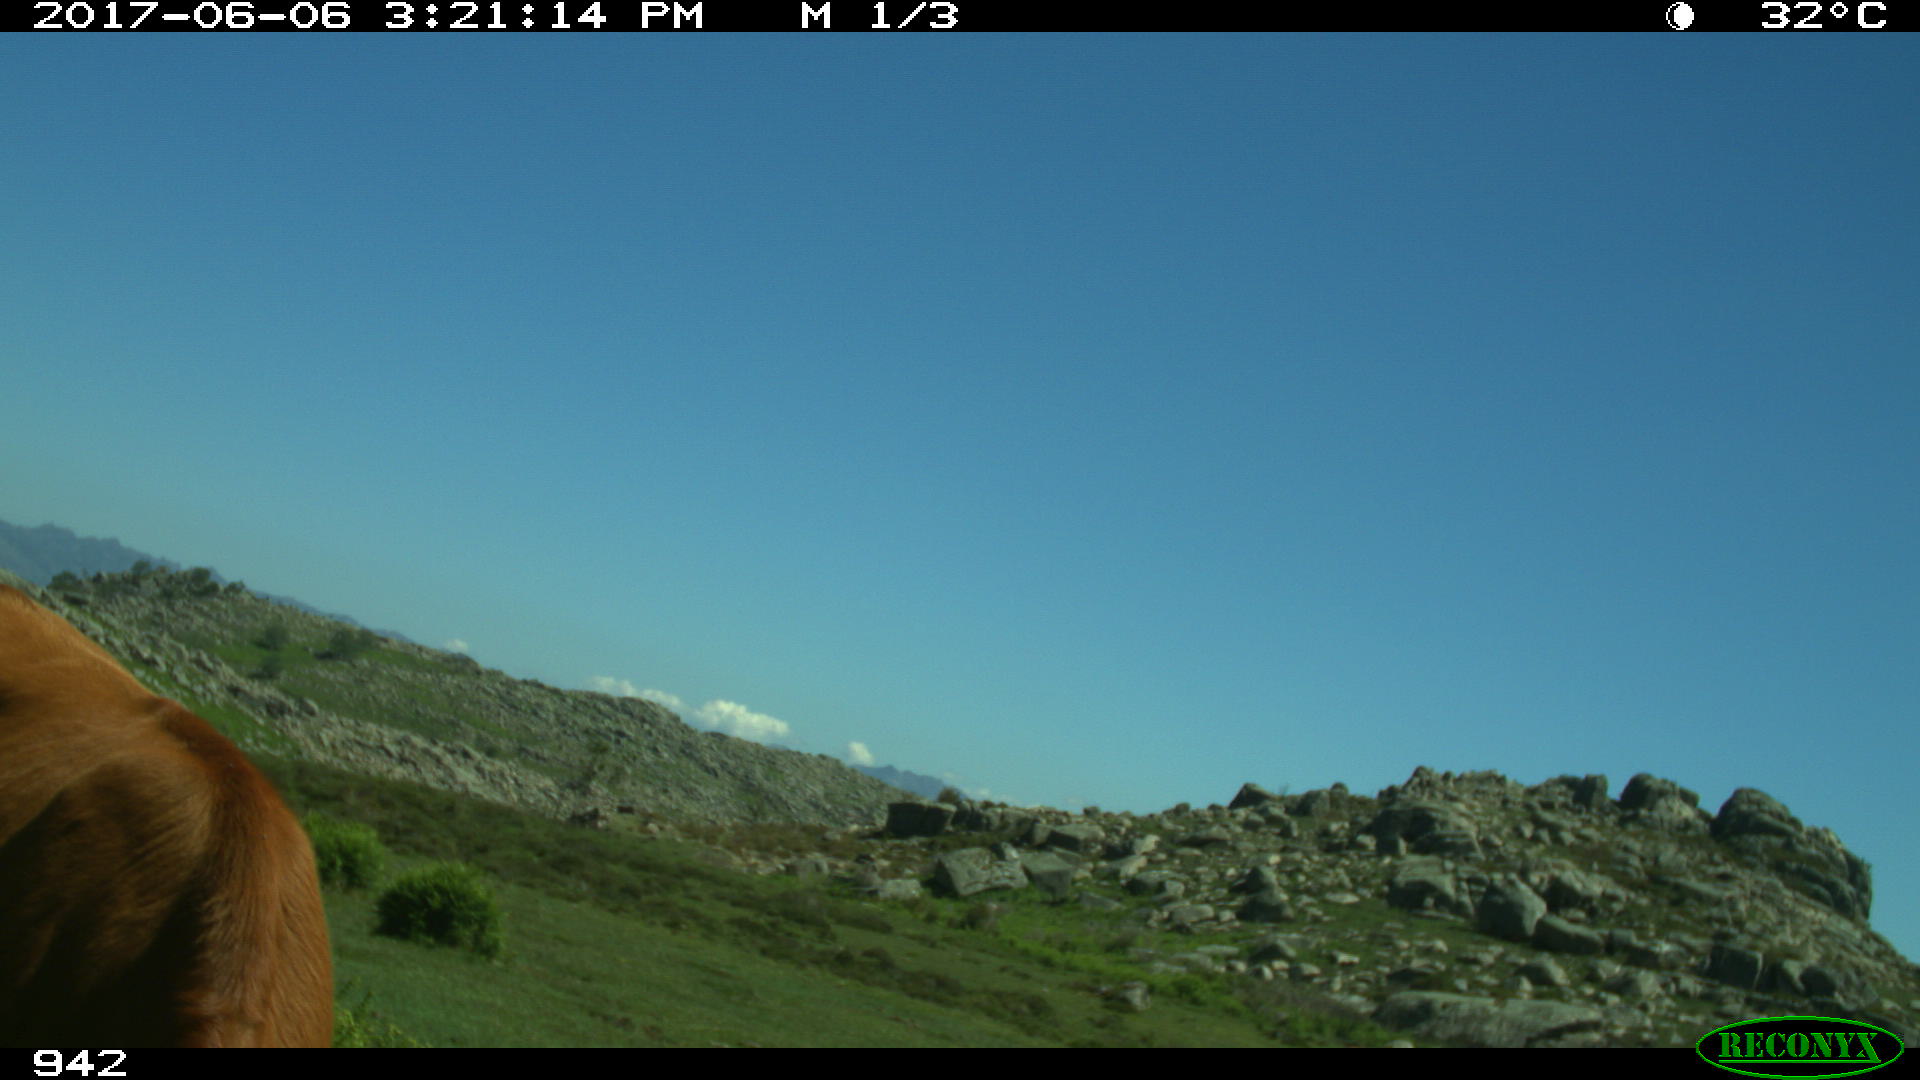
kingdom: Animalia
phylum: Chordata
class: Mammalia
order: Artiodactyla
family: Bovidae
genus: Bos
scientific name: Bos taurus
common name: Domesticated cattle
